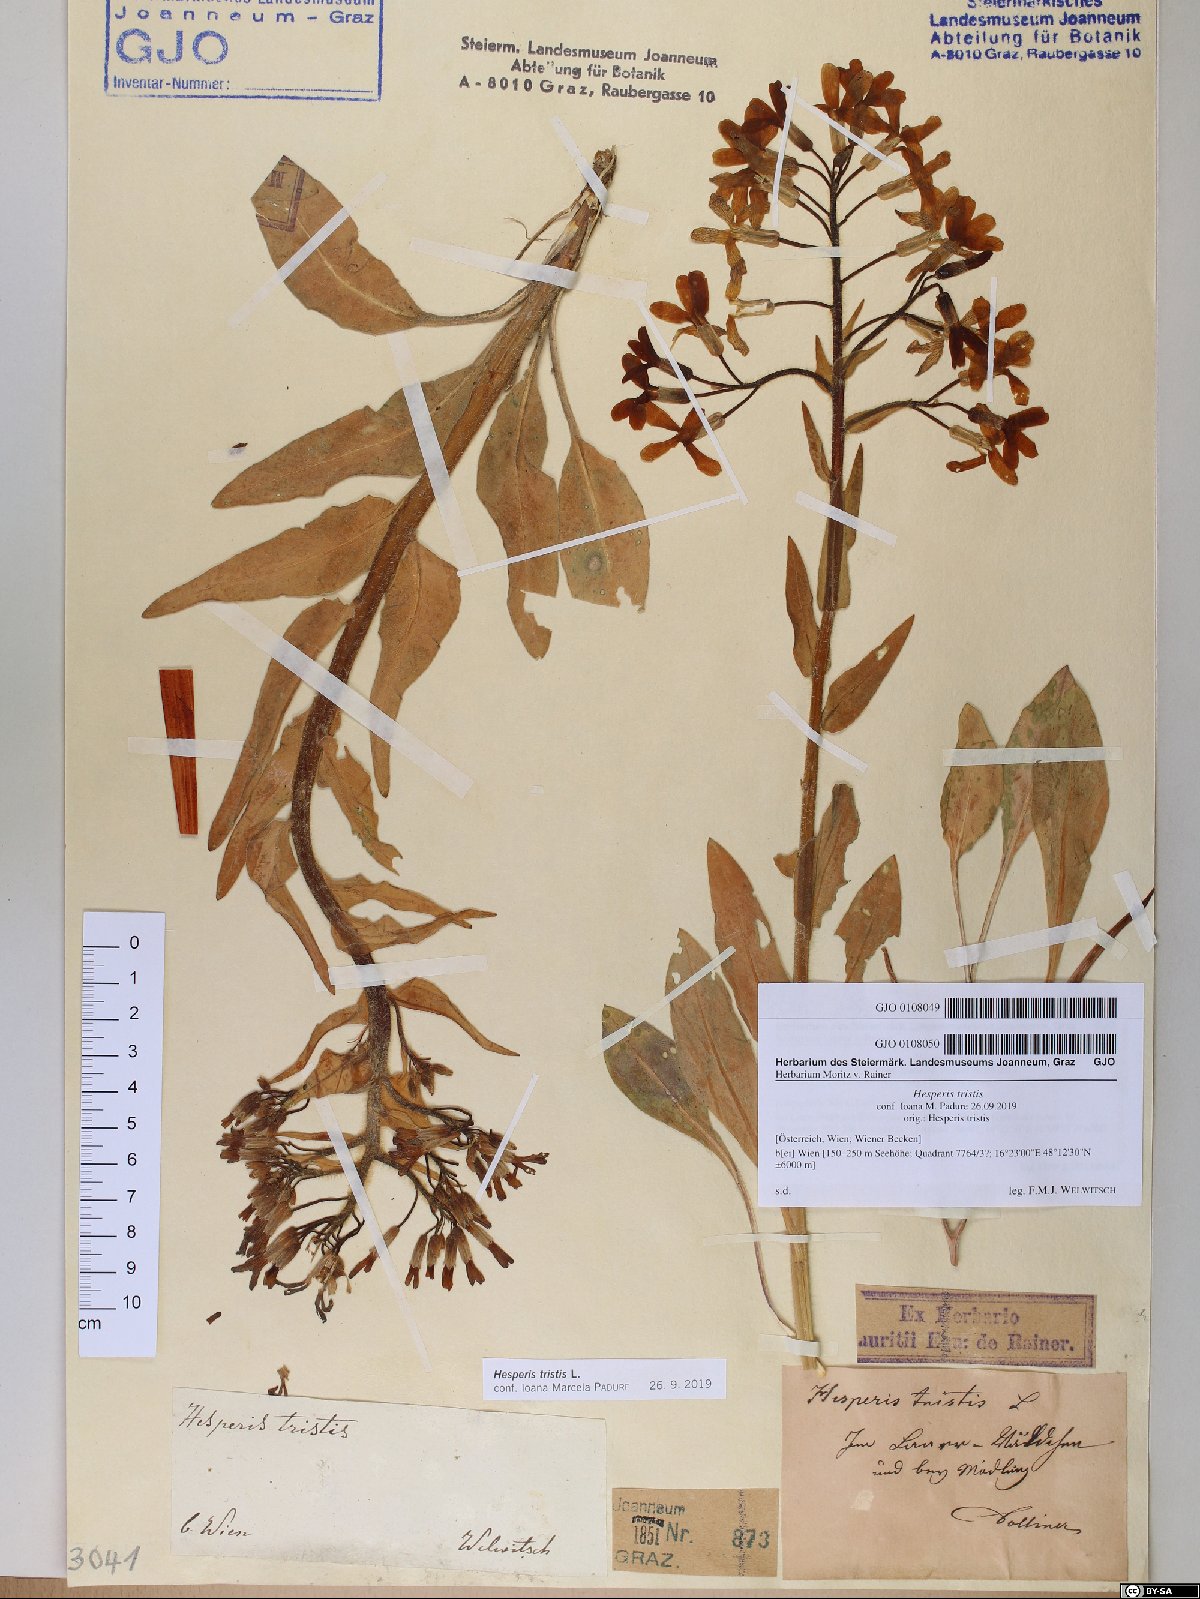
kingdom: Plantae
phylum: Tracheophyta
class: Magnoliopsida
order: Brassicales
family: Brassicaceae
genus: Hesperis
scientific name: Hesperis tristis
